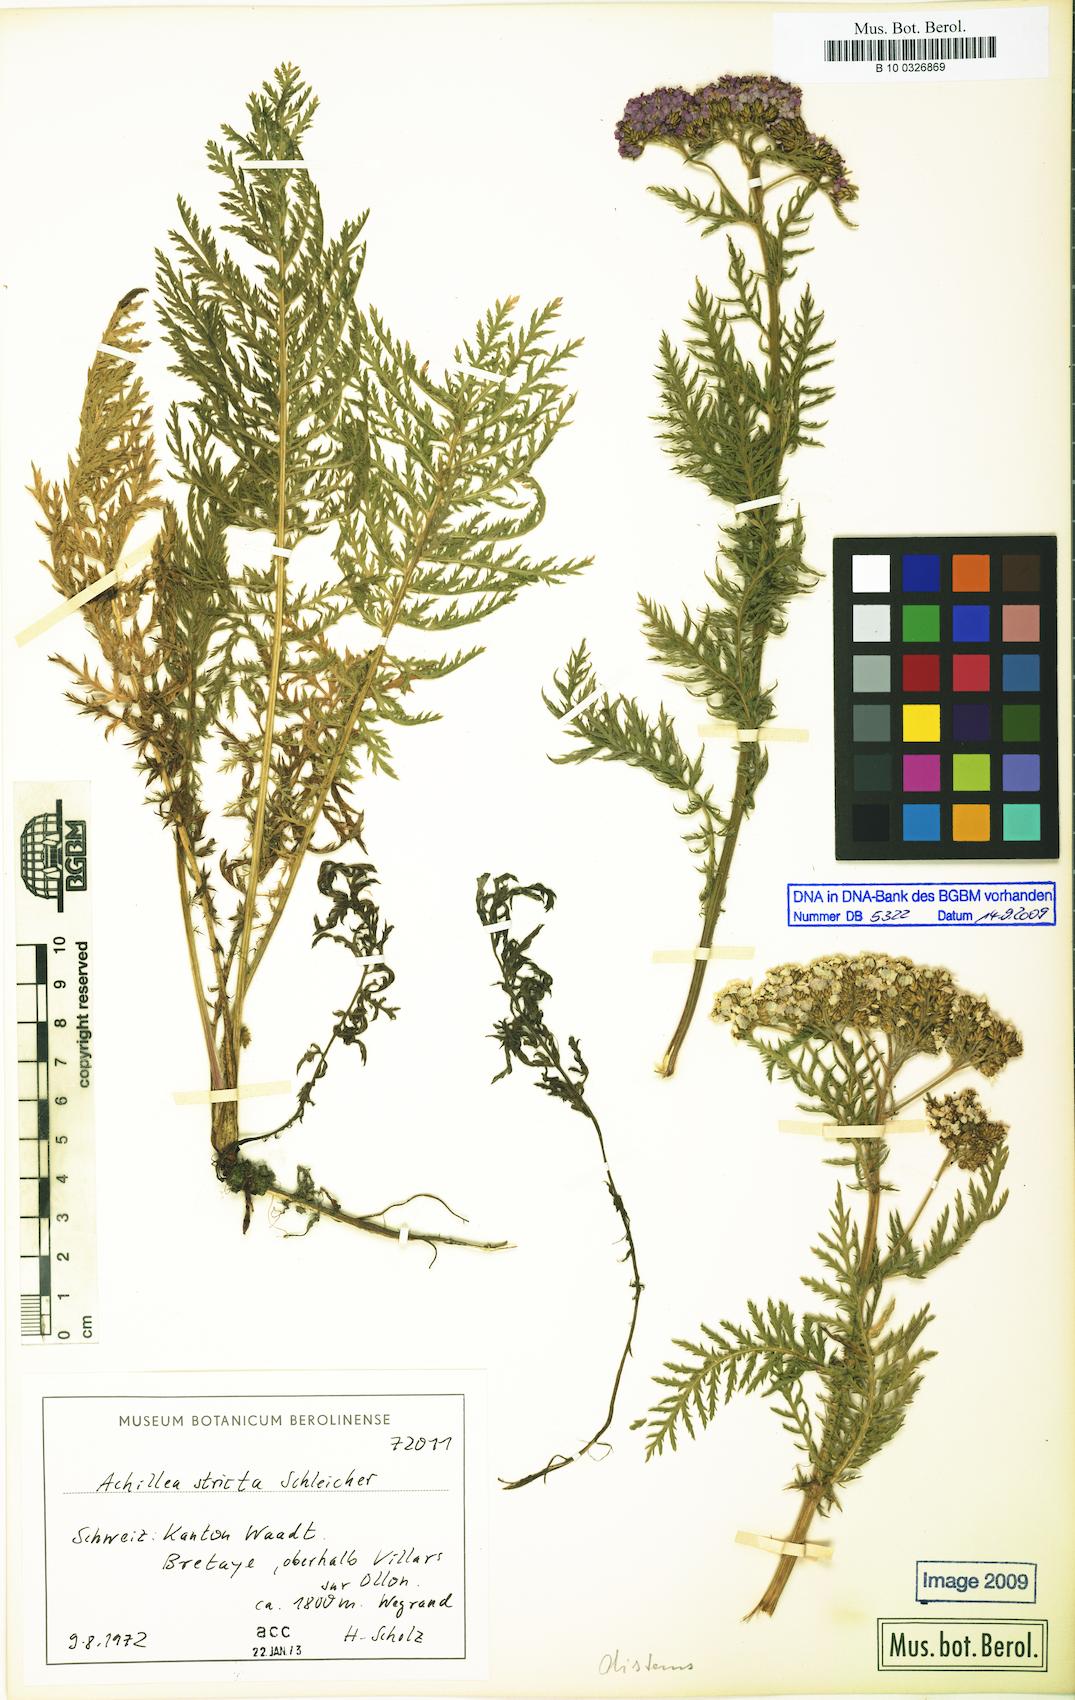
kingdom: Plantae
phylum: Tracheophyta
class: Magnoliopsida
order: Asterales
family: Asteraceae
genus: Achillea
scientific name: Achillea distans
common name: Tall yarrow
